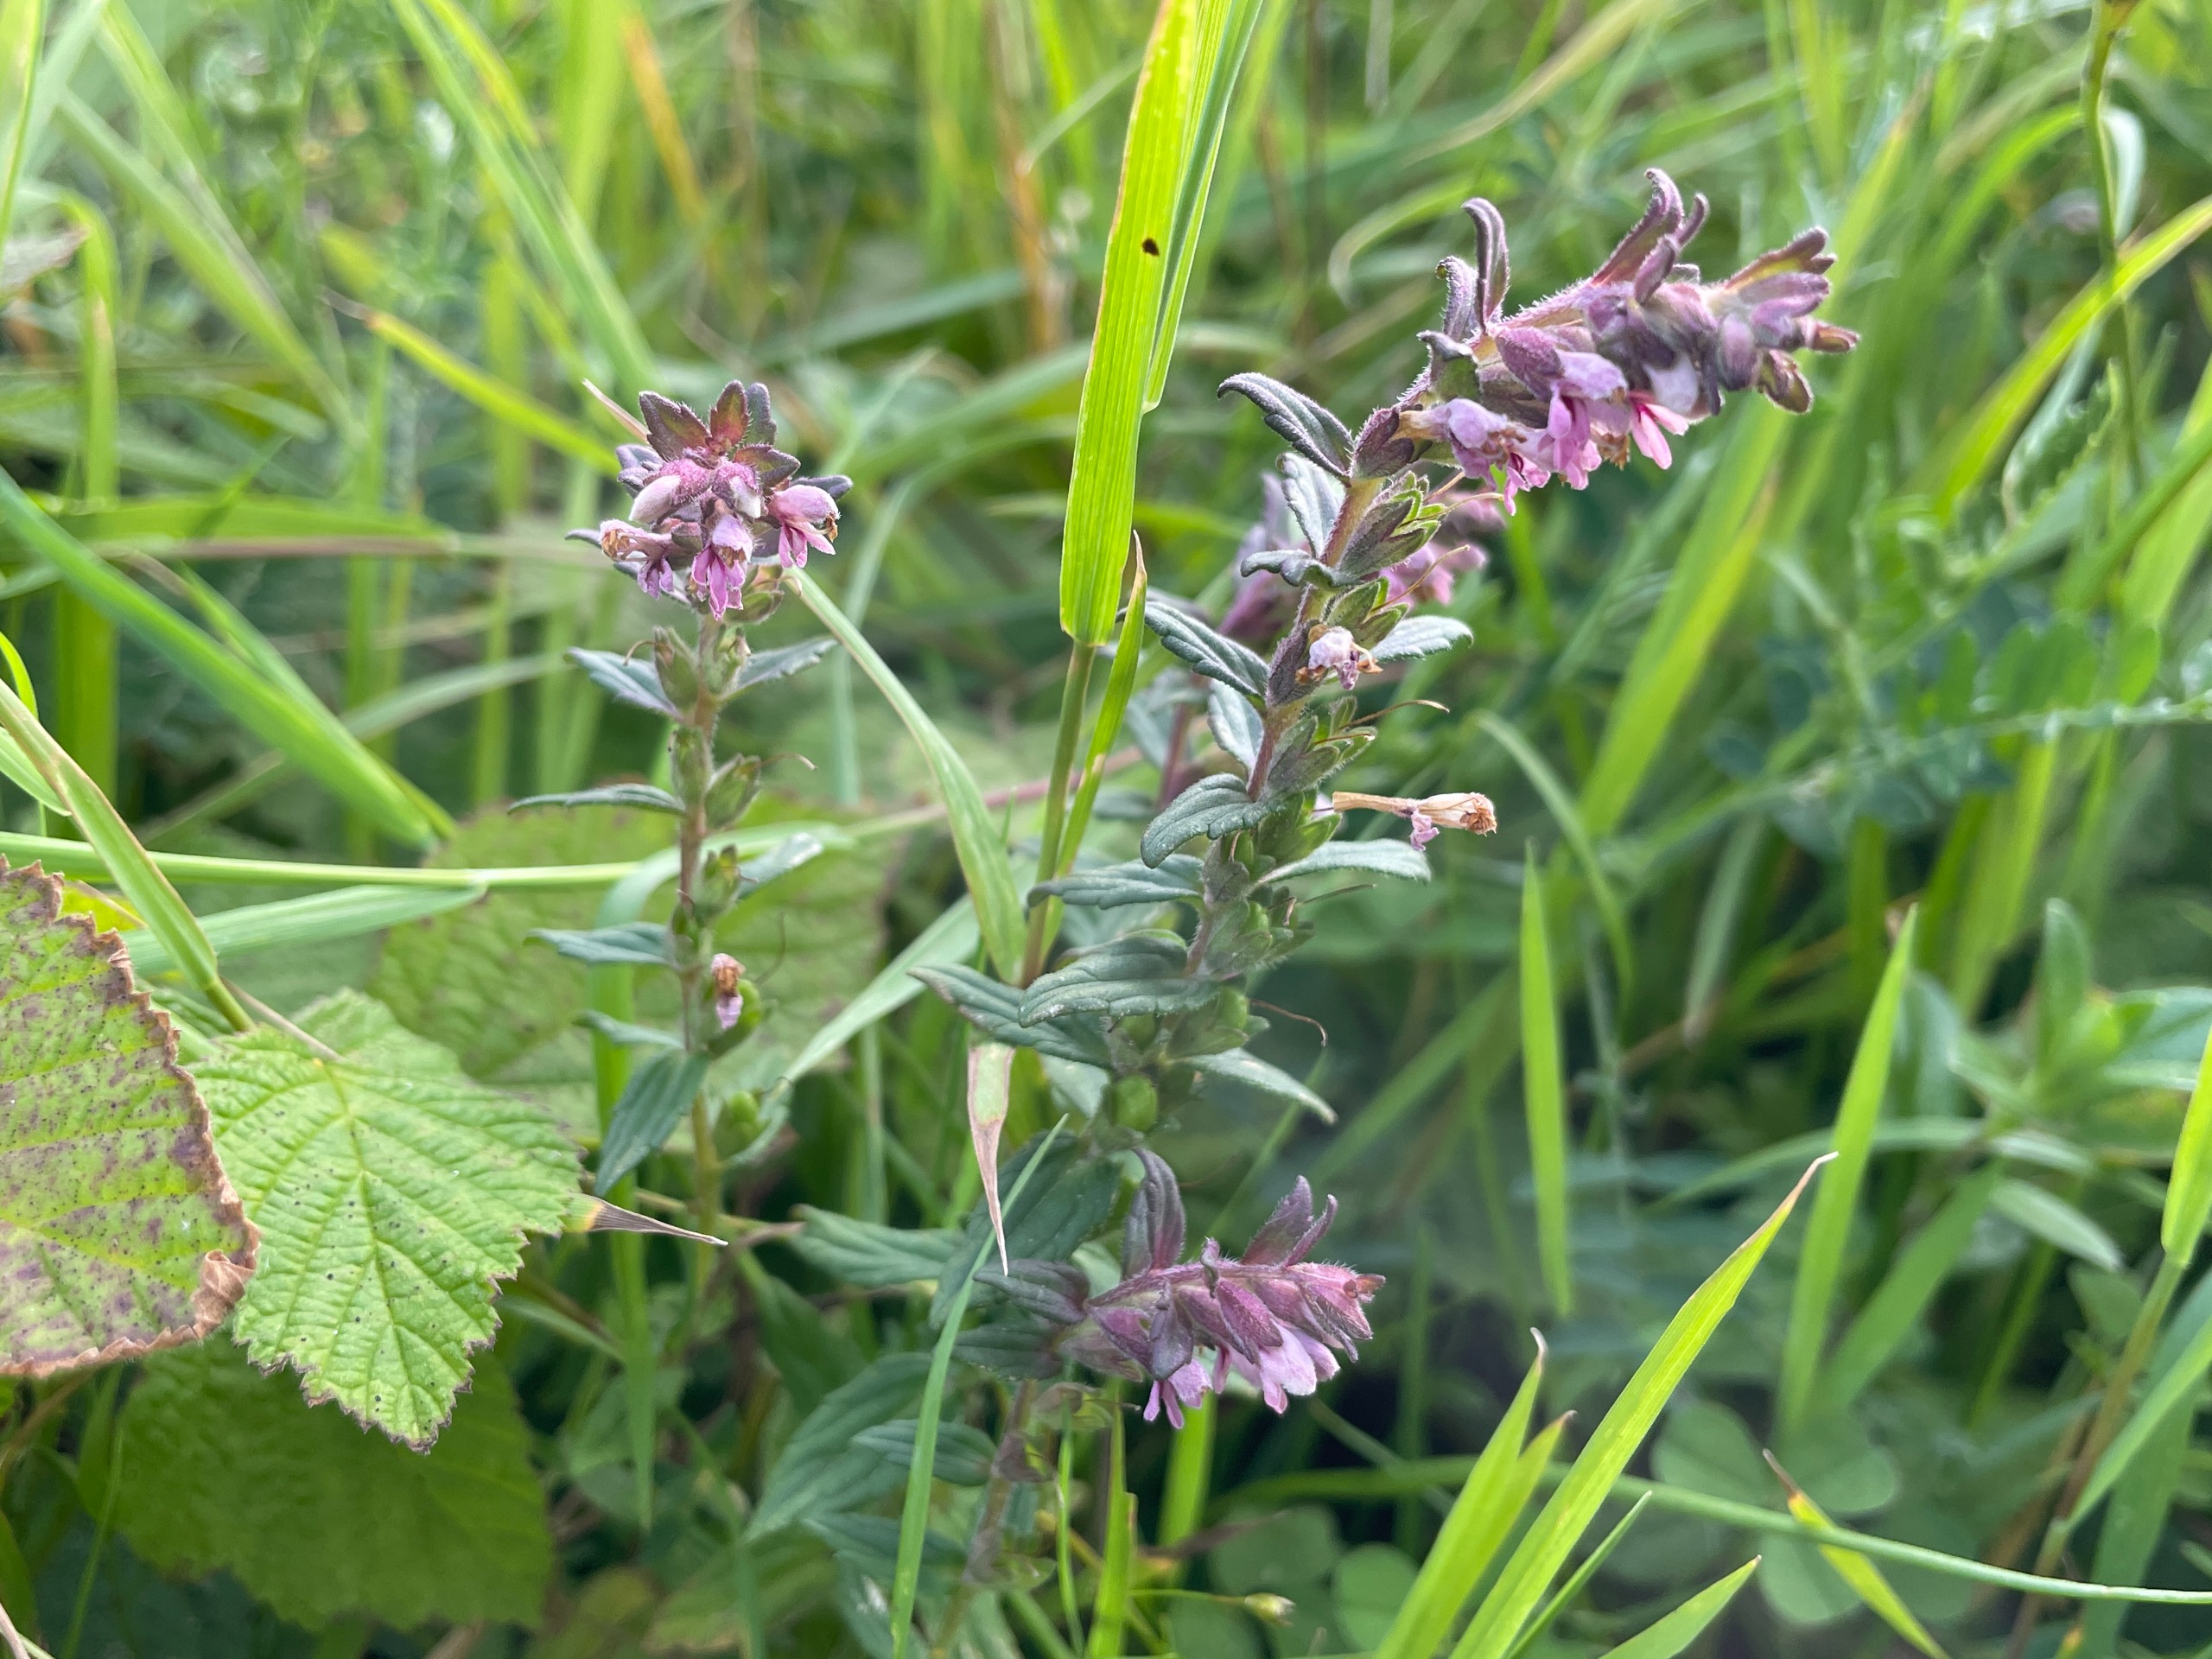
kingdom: Plantae
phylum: Tracheophyta
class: Magnoliopsida
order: Lamiales
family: Orobanchaceae
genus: Odontites
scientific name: Odontites
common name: Rødtopslægten
